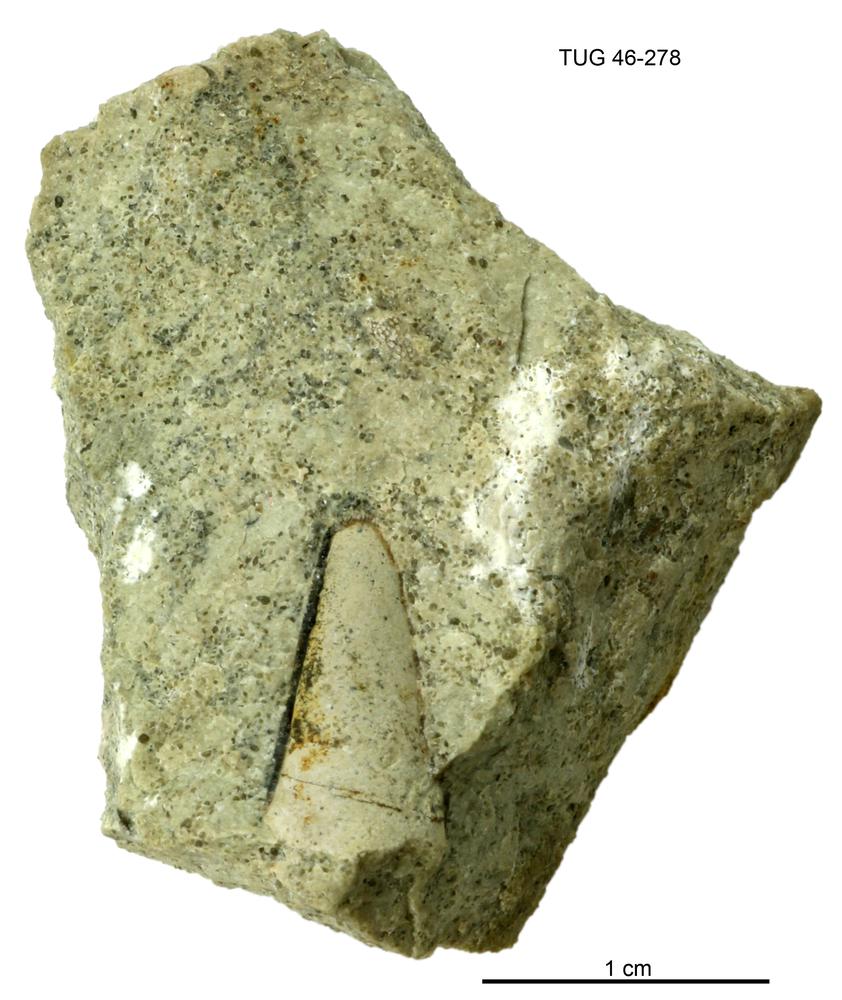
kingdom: Animalia
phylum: Annelida
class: Polychaeta
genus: Hyolithes
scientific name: Hyolithes
